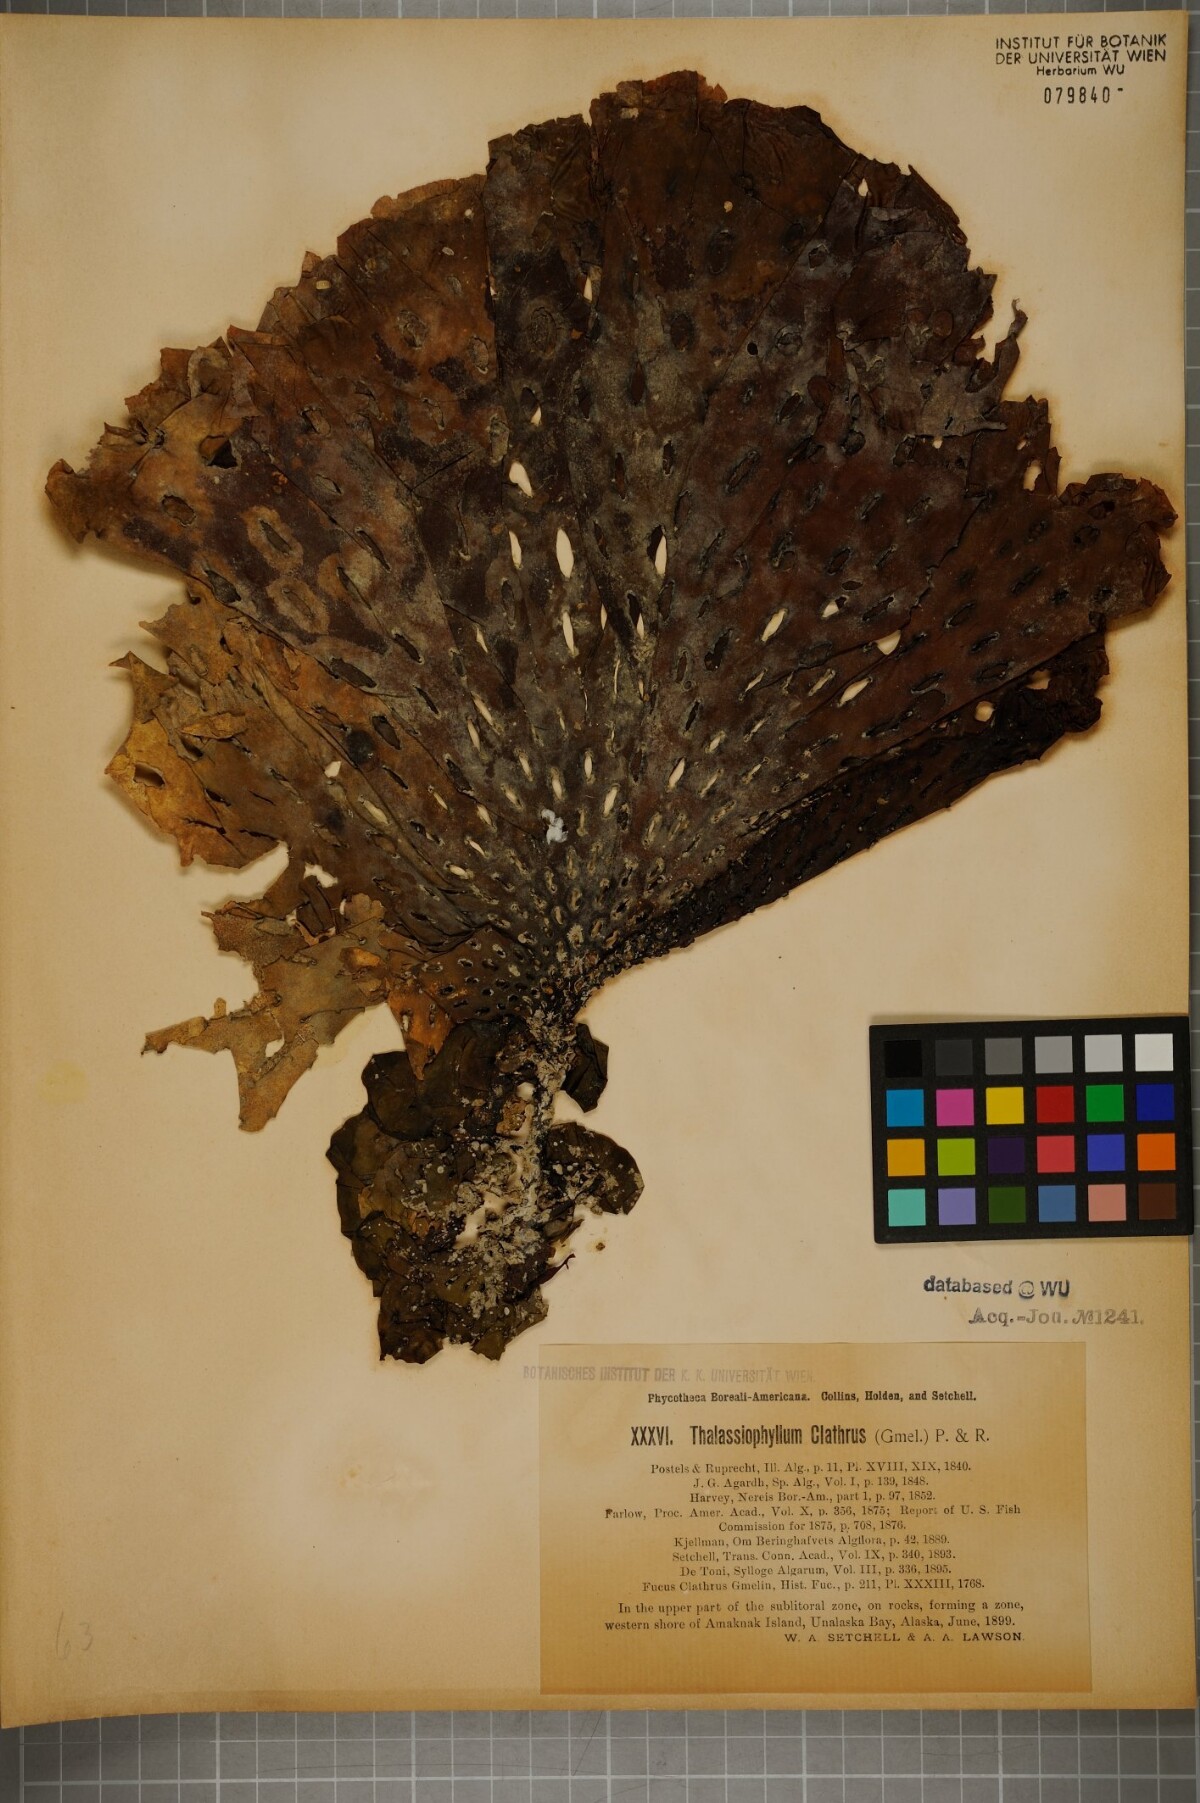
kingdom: Chromista
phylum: Ochrophyta
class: Phaeophyceae
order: Laminariales
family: Agaraceae
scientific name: Agaraceae
